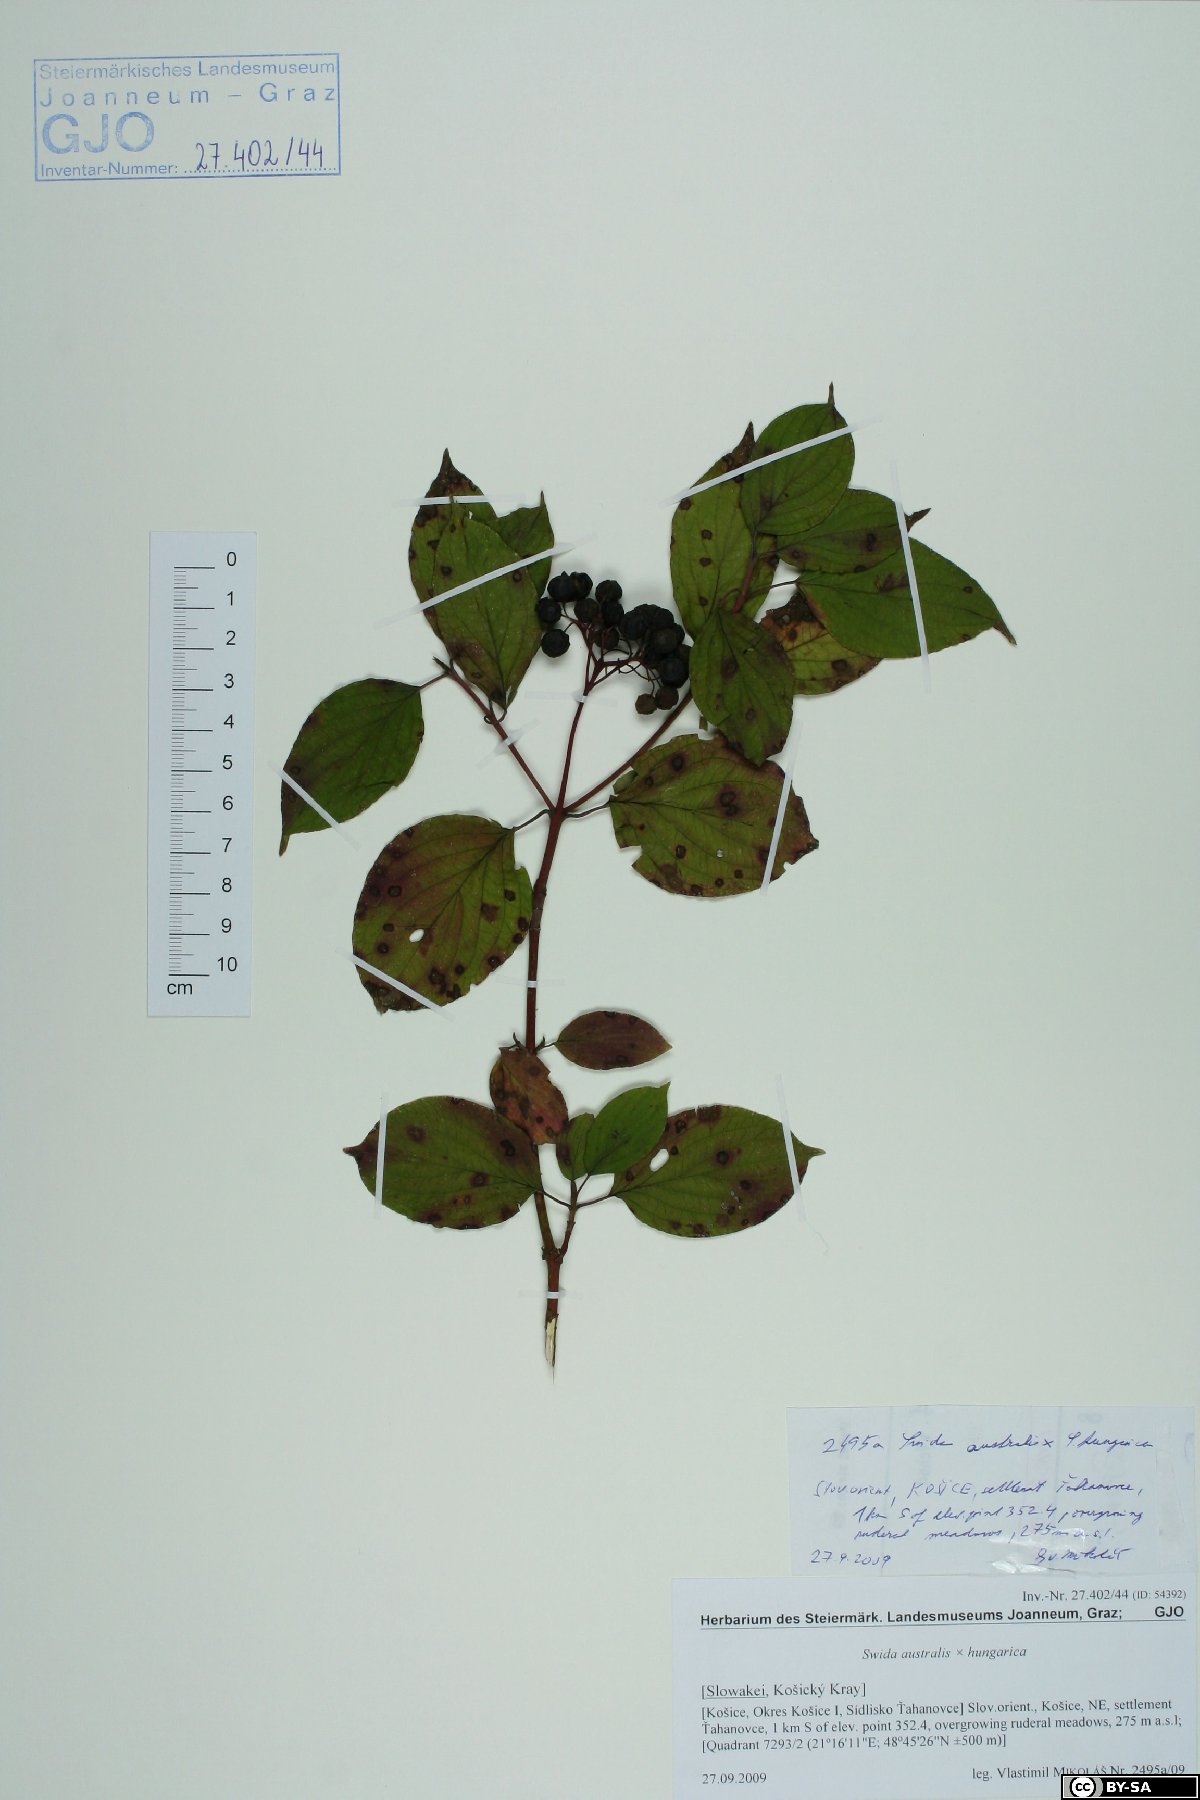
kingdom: Plantae
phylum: Tracheophyta
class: Magnoliopsida
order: Cornales
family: Cornaceae
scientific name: Cornaceae
